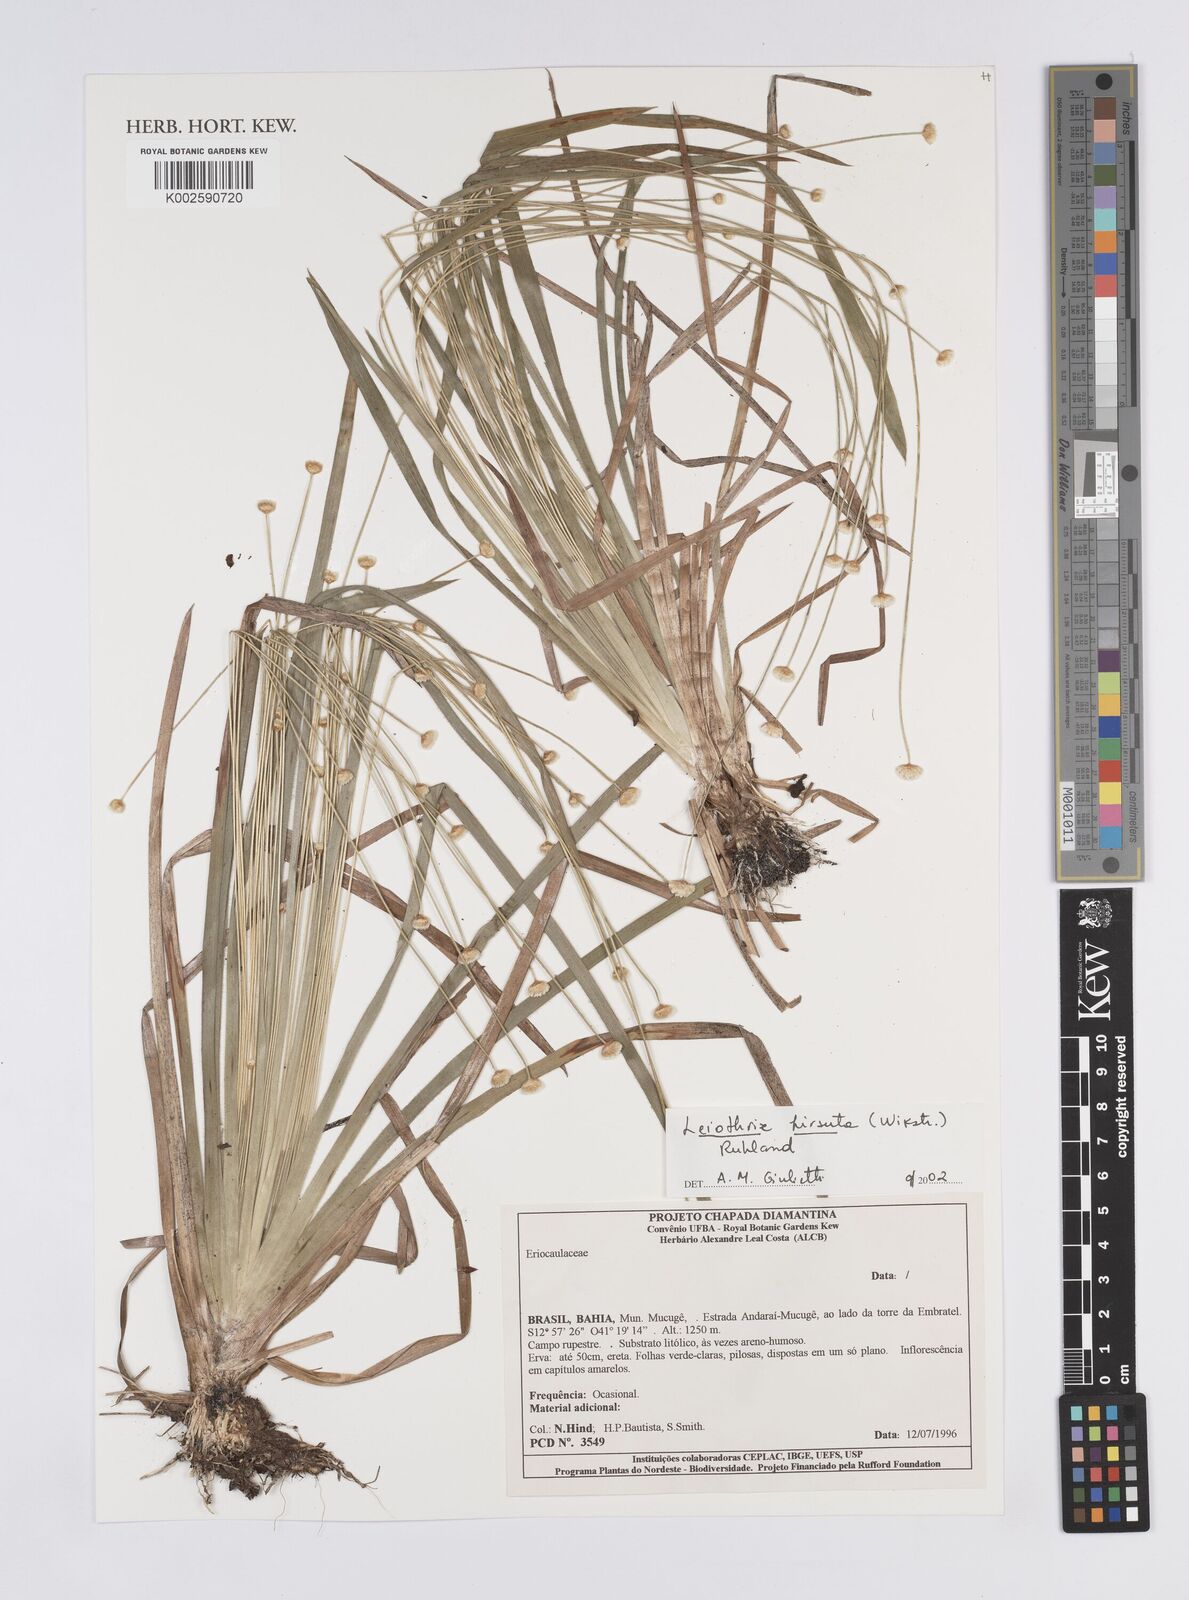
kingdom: Plantae
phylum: Tracheophyta
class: Liliopsida
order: Poales
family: Eriocaulaceae
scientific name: Eriocaulaceae
